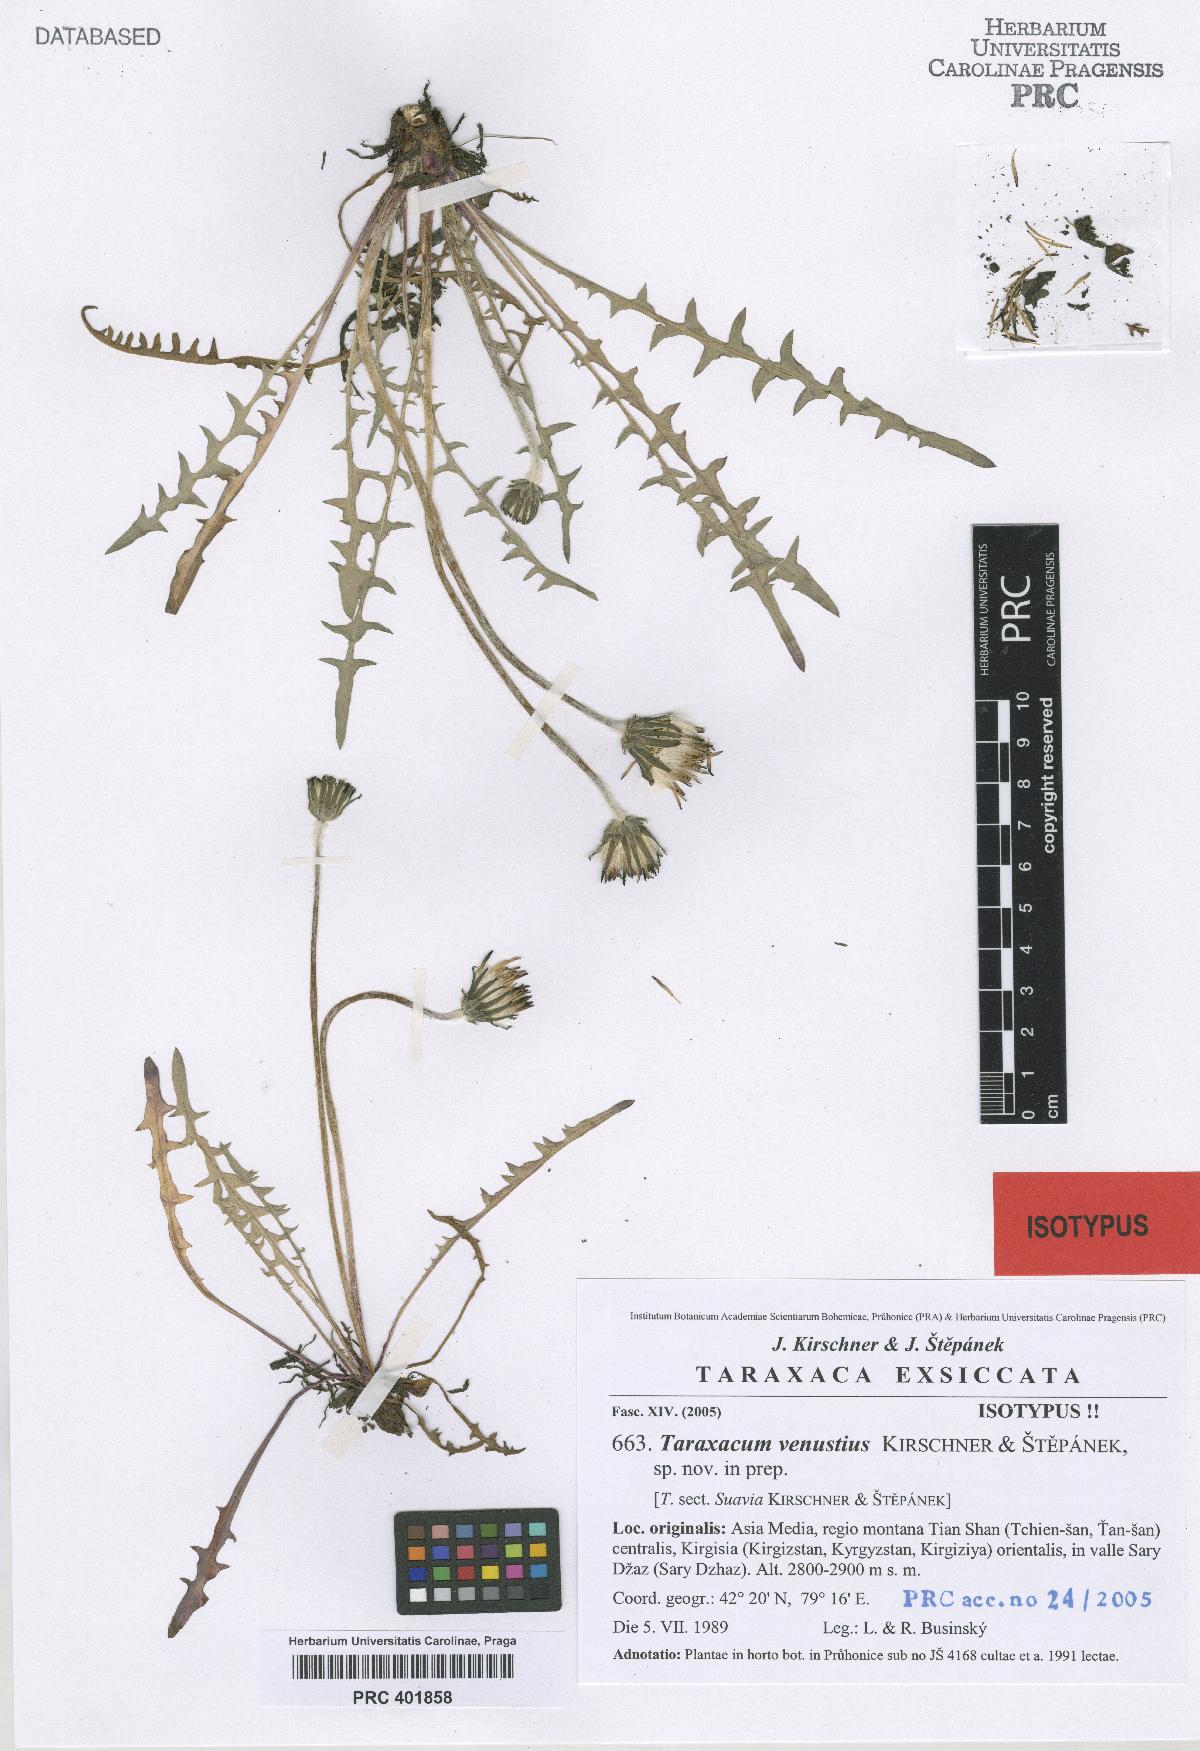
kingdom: Plantae
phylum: Tracheophyta
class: Magnoliopsida
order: Asterales
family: Asteraceae
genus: Taraxacum
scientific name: Taraxacum venustius
